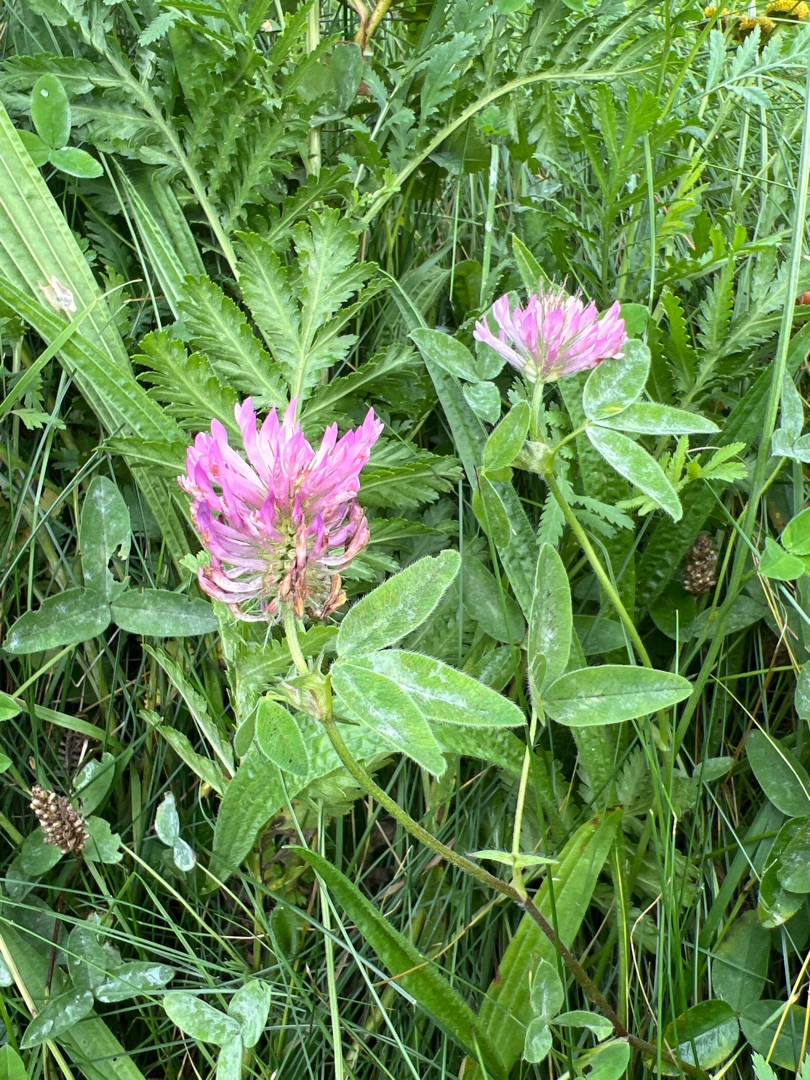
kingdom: Plantae
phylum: Tracheophyta
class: Magnoliopsida
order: Fabales
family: Fabaceae
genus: Trifolium
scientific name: Trifolium medium
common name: Bugtet kløver
